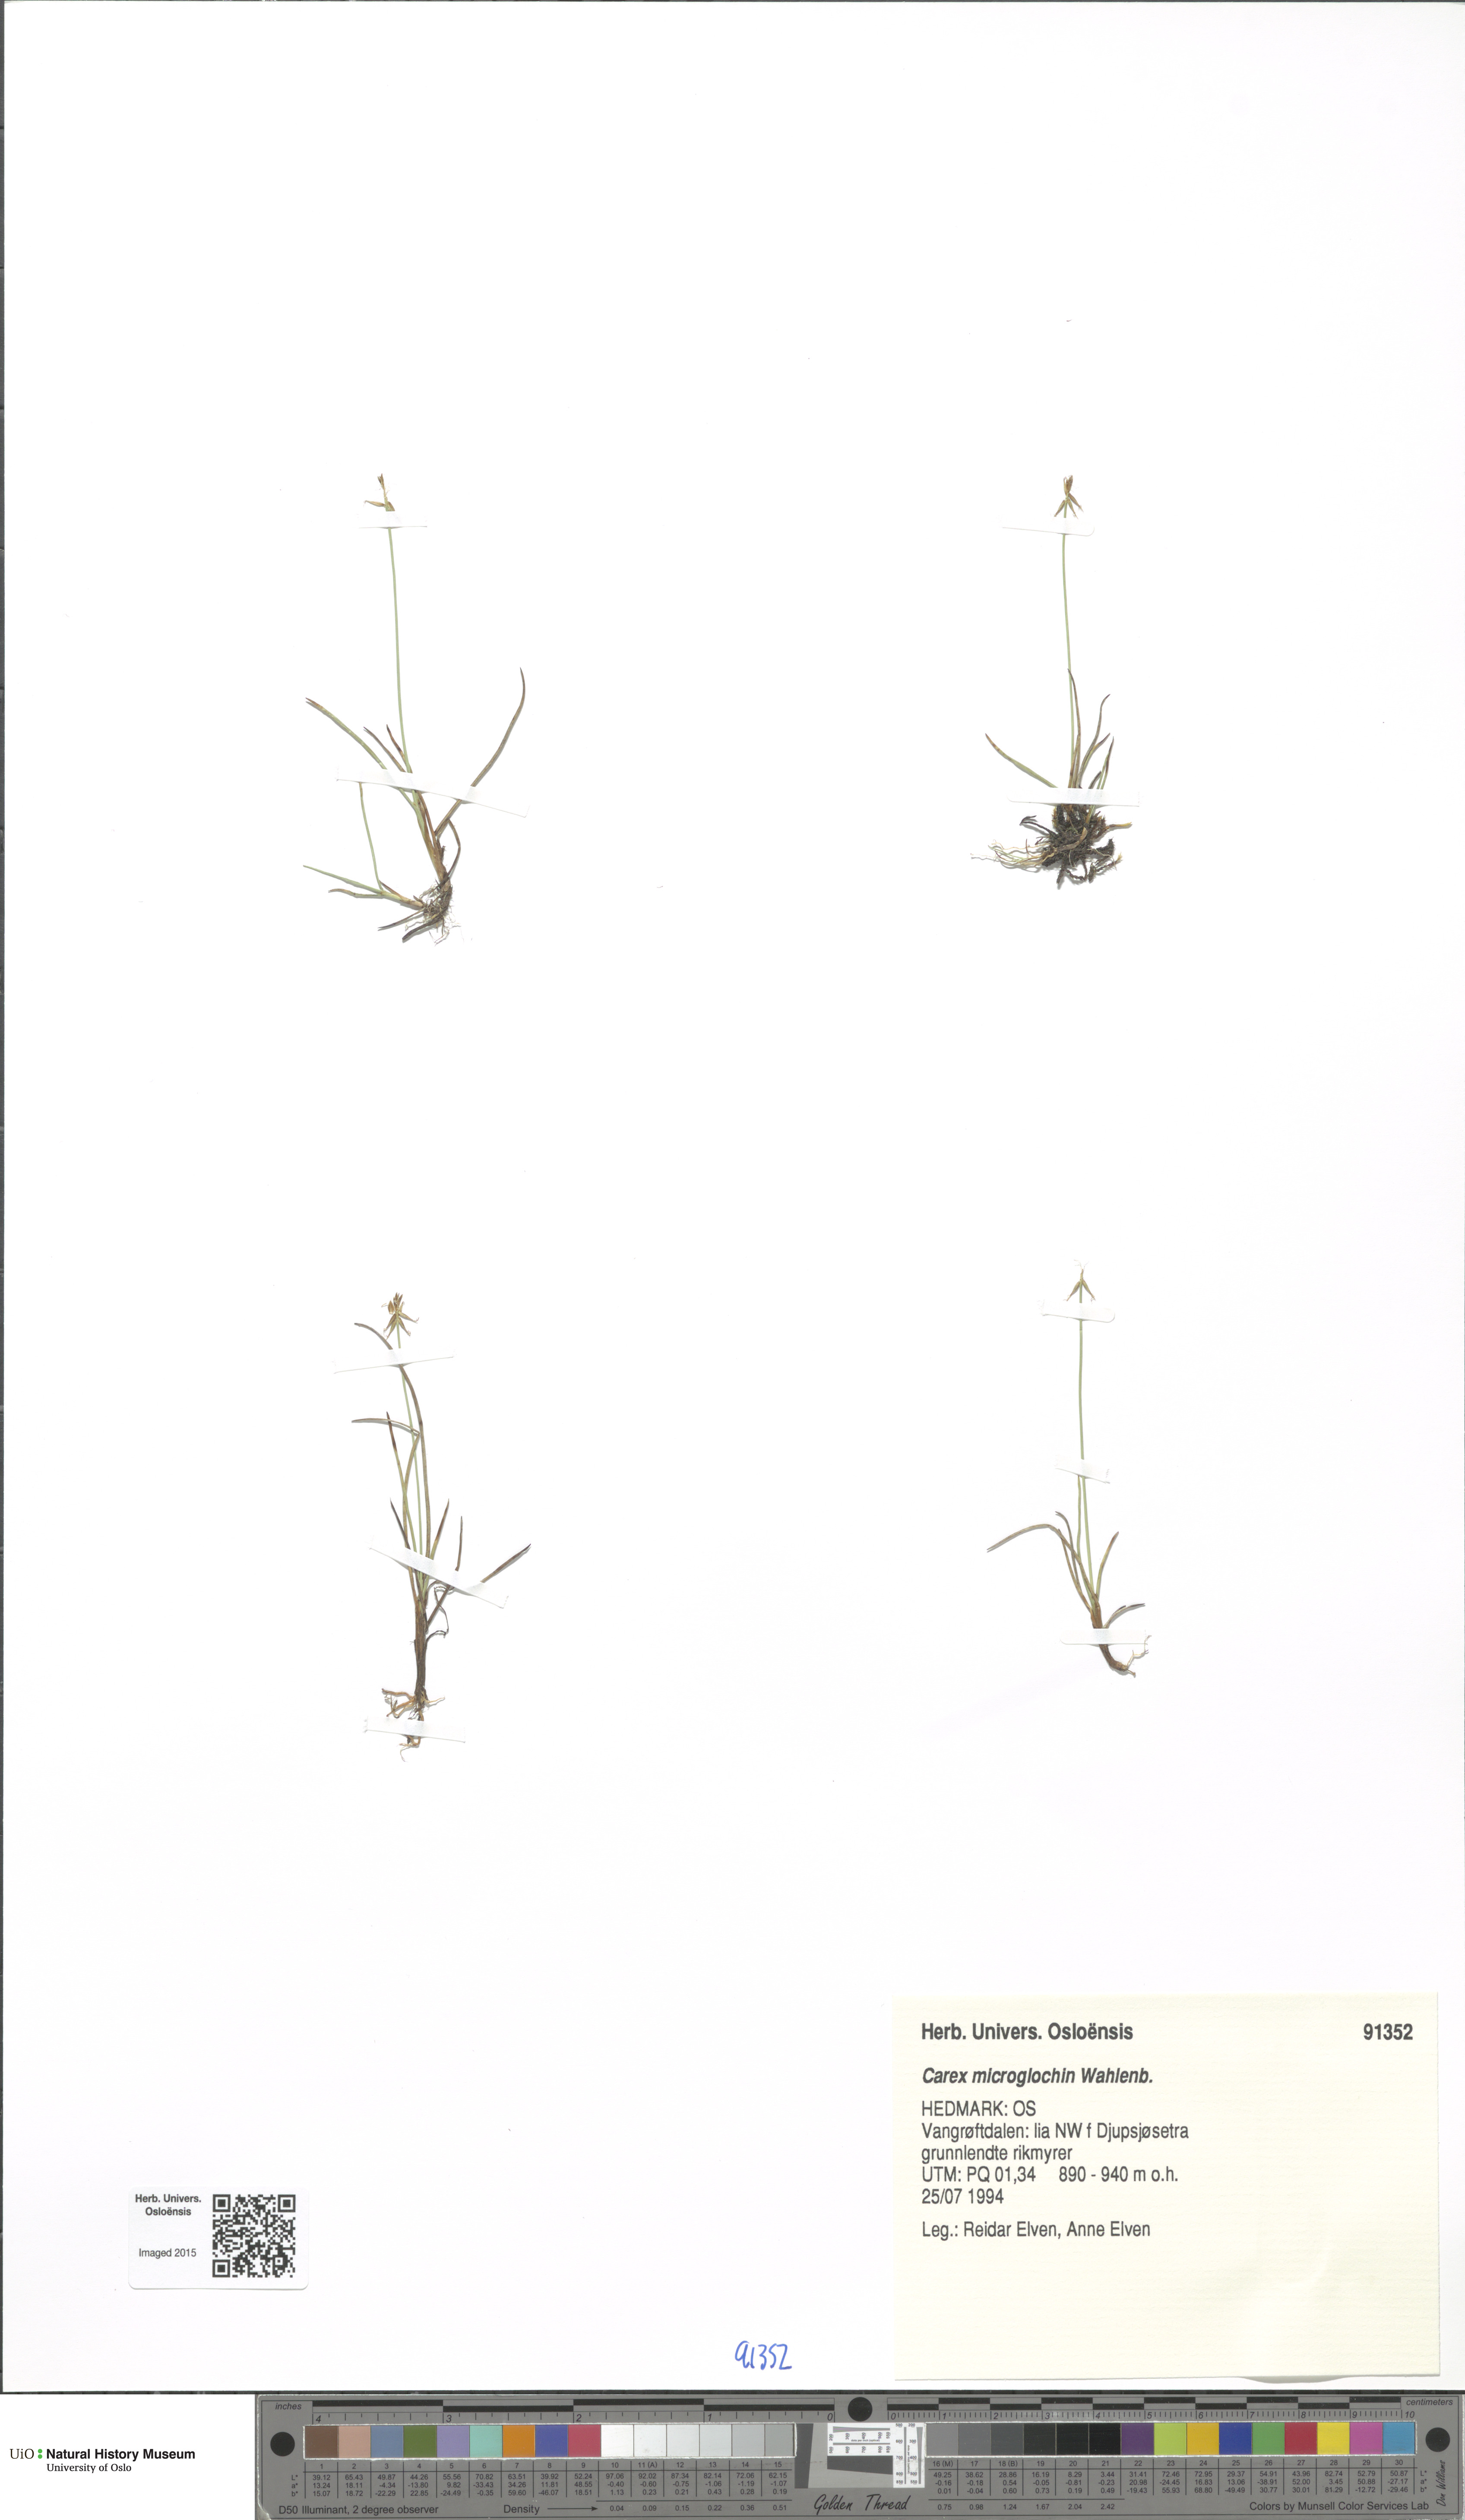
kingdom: Plantae
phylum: Tracheophyta
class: Liliopsida
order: Poales
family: Cyperaceae
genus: Carex
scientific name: Carex microglochin
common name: Bristle sedge
